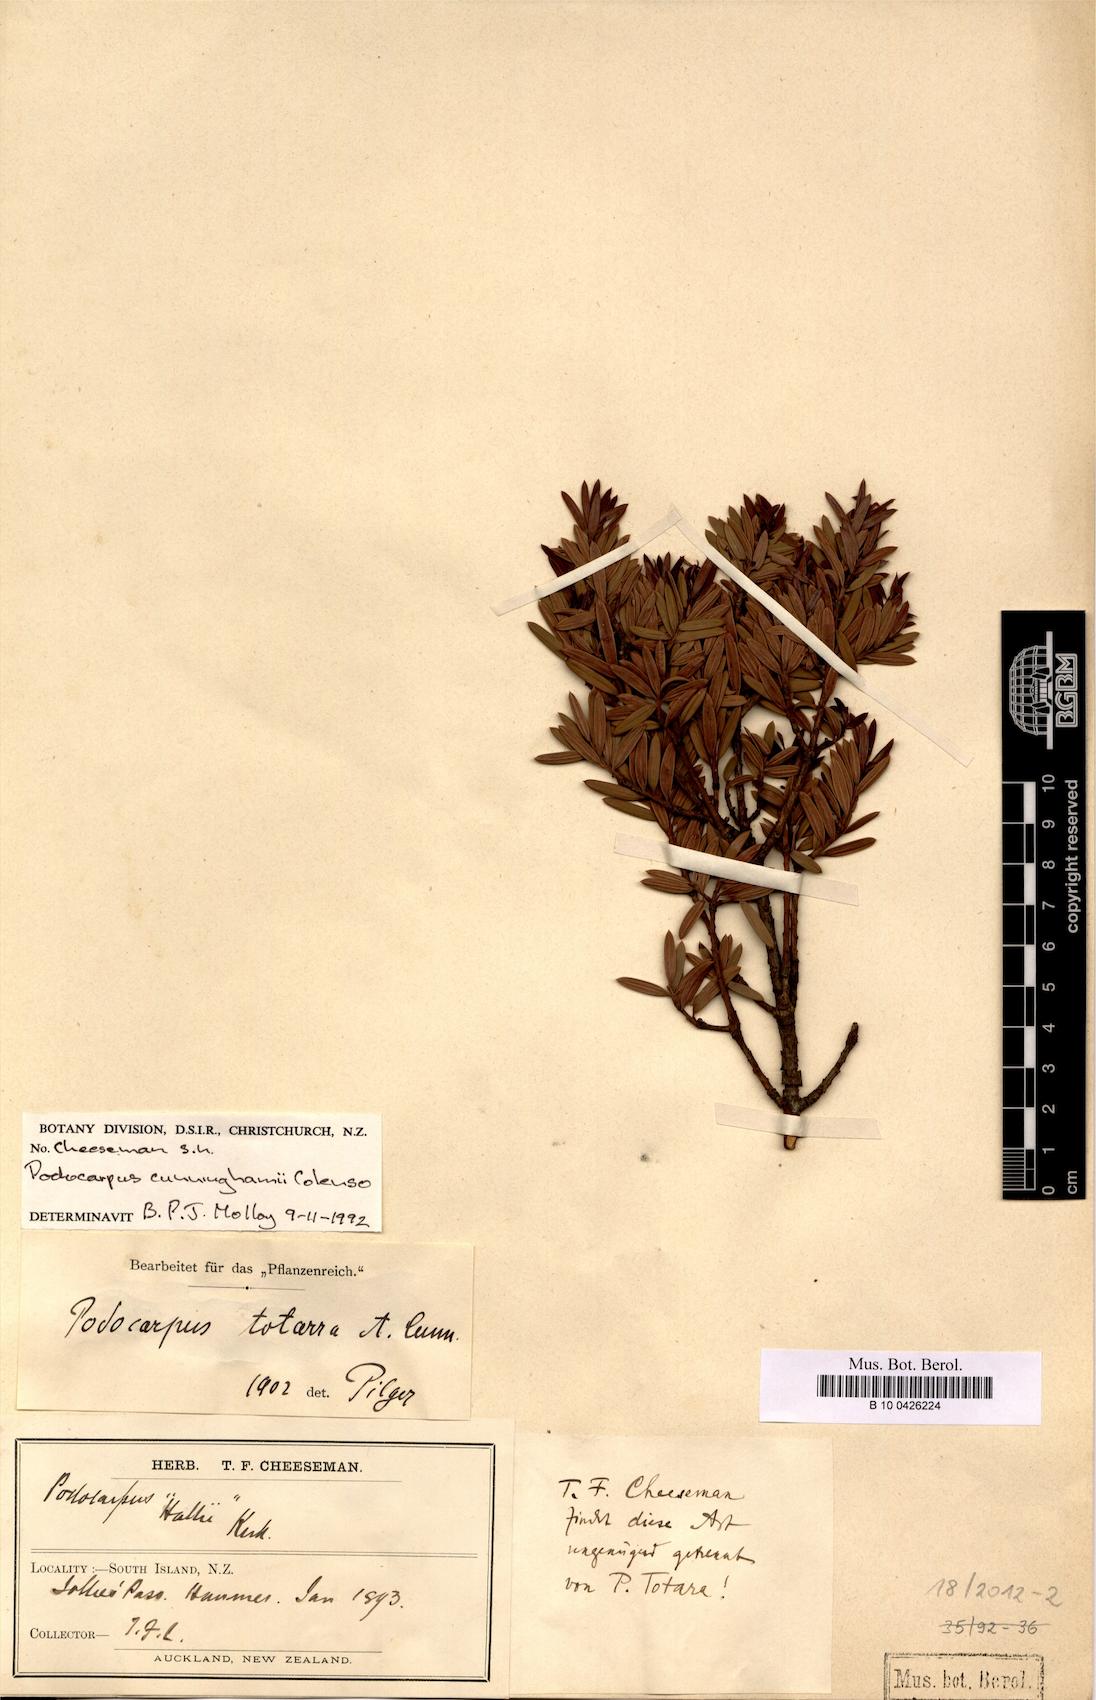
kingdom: Plantae
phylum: Tracheophyta
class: Pinopsida
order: Pinales
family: Podocarpaceae
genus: Podocarpus
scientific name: Podocarpus cunninghamii
